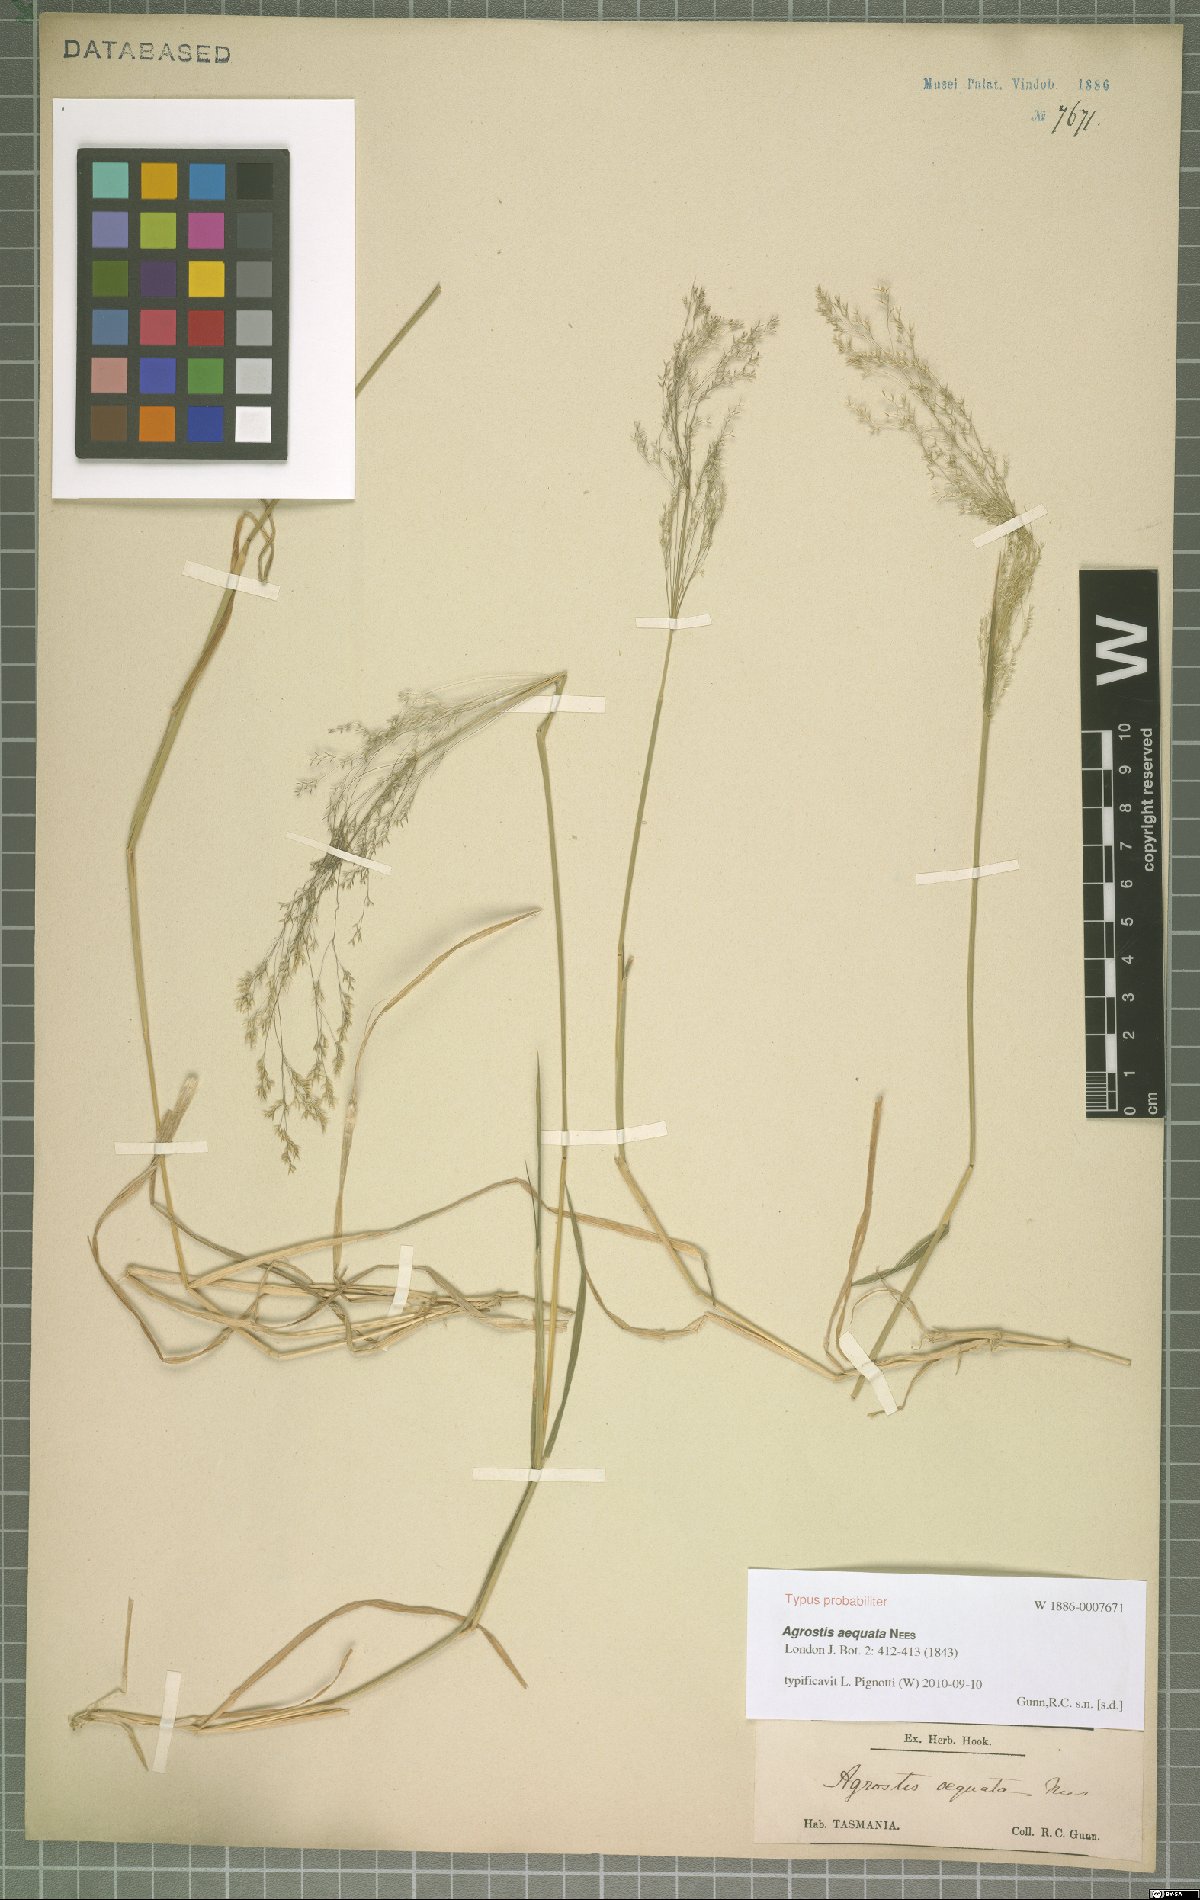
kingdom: Plantae
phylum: Tracheophyta
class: Liliopsida
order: Poales
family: Poaceae
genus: Lachnagrostis
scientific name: Lachnagrostis rudis
